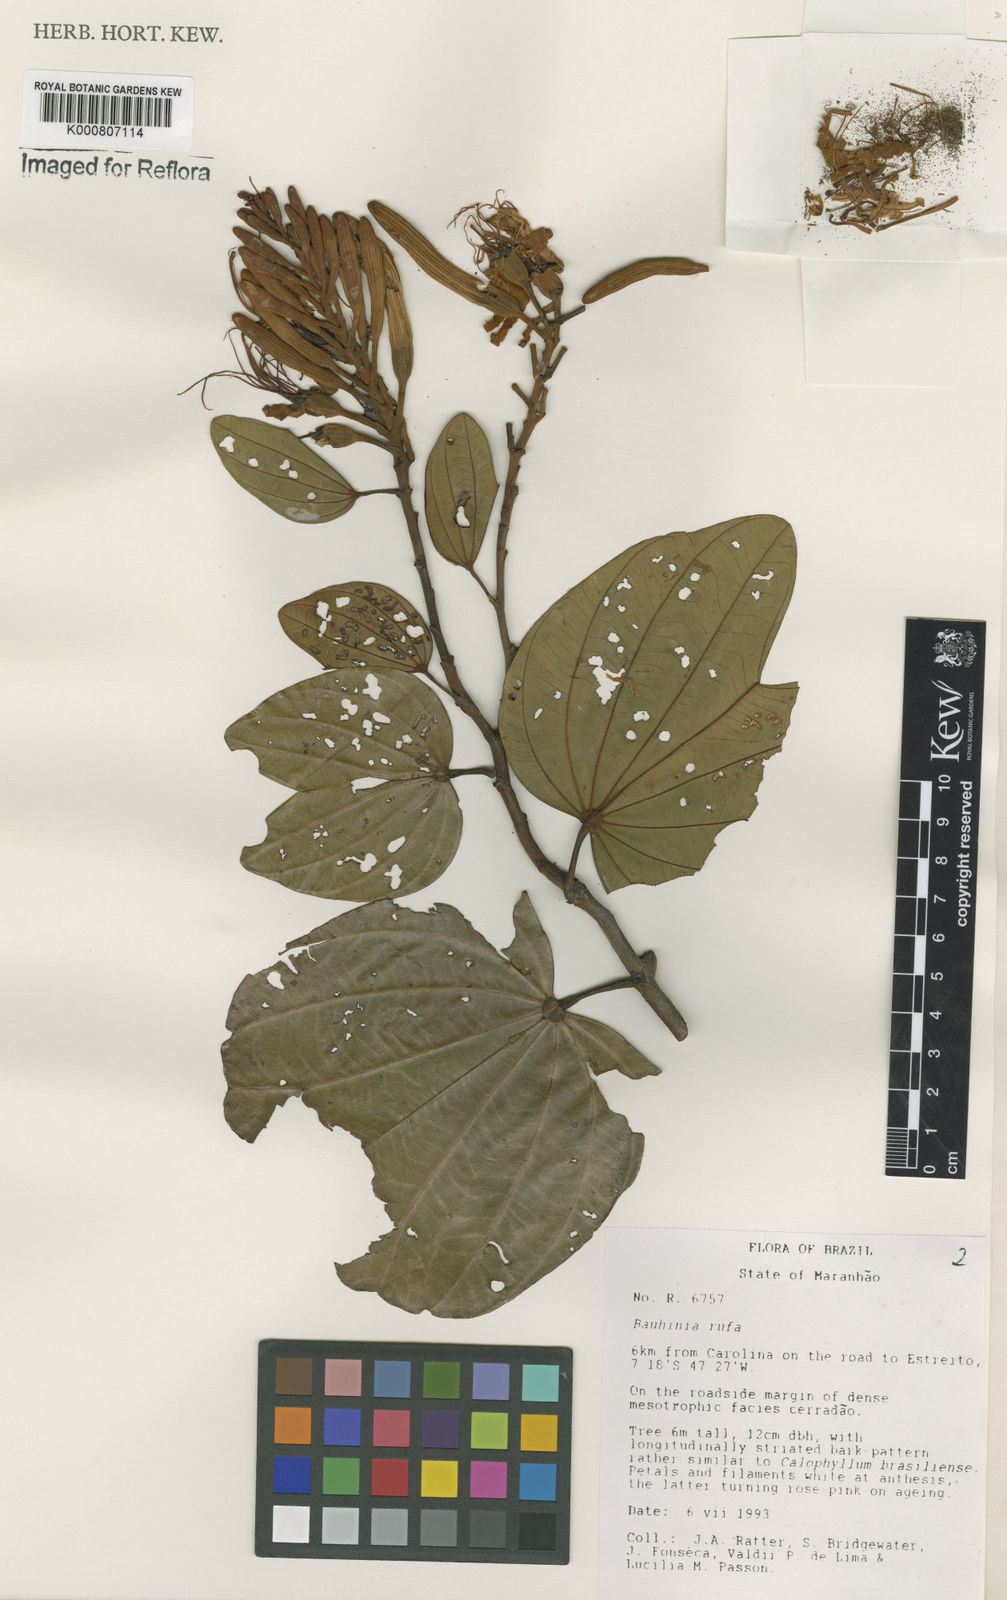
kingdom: Plantae
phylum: Tracheophyta
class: Magnoliopsida
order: Fabales
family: Fabaceae
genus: Bauhinia
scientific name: Bauhinia rufa
